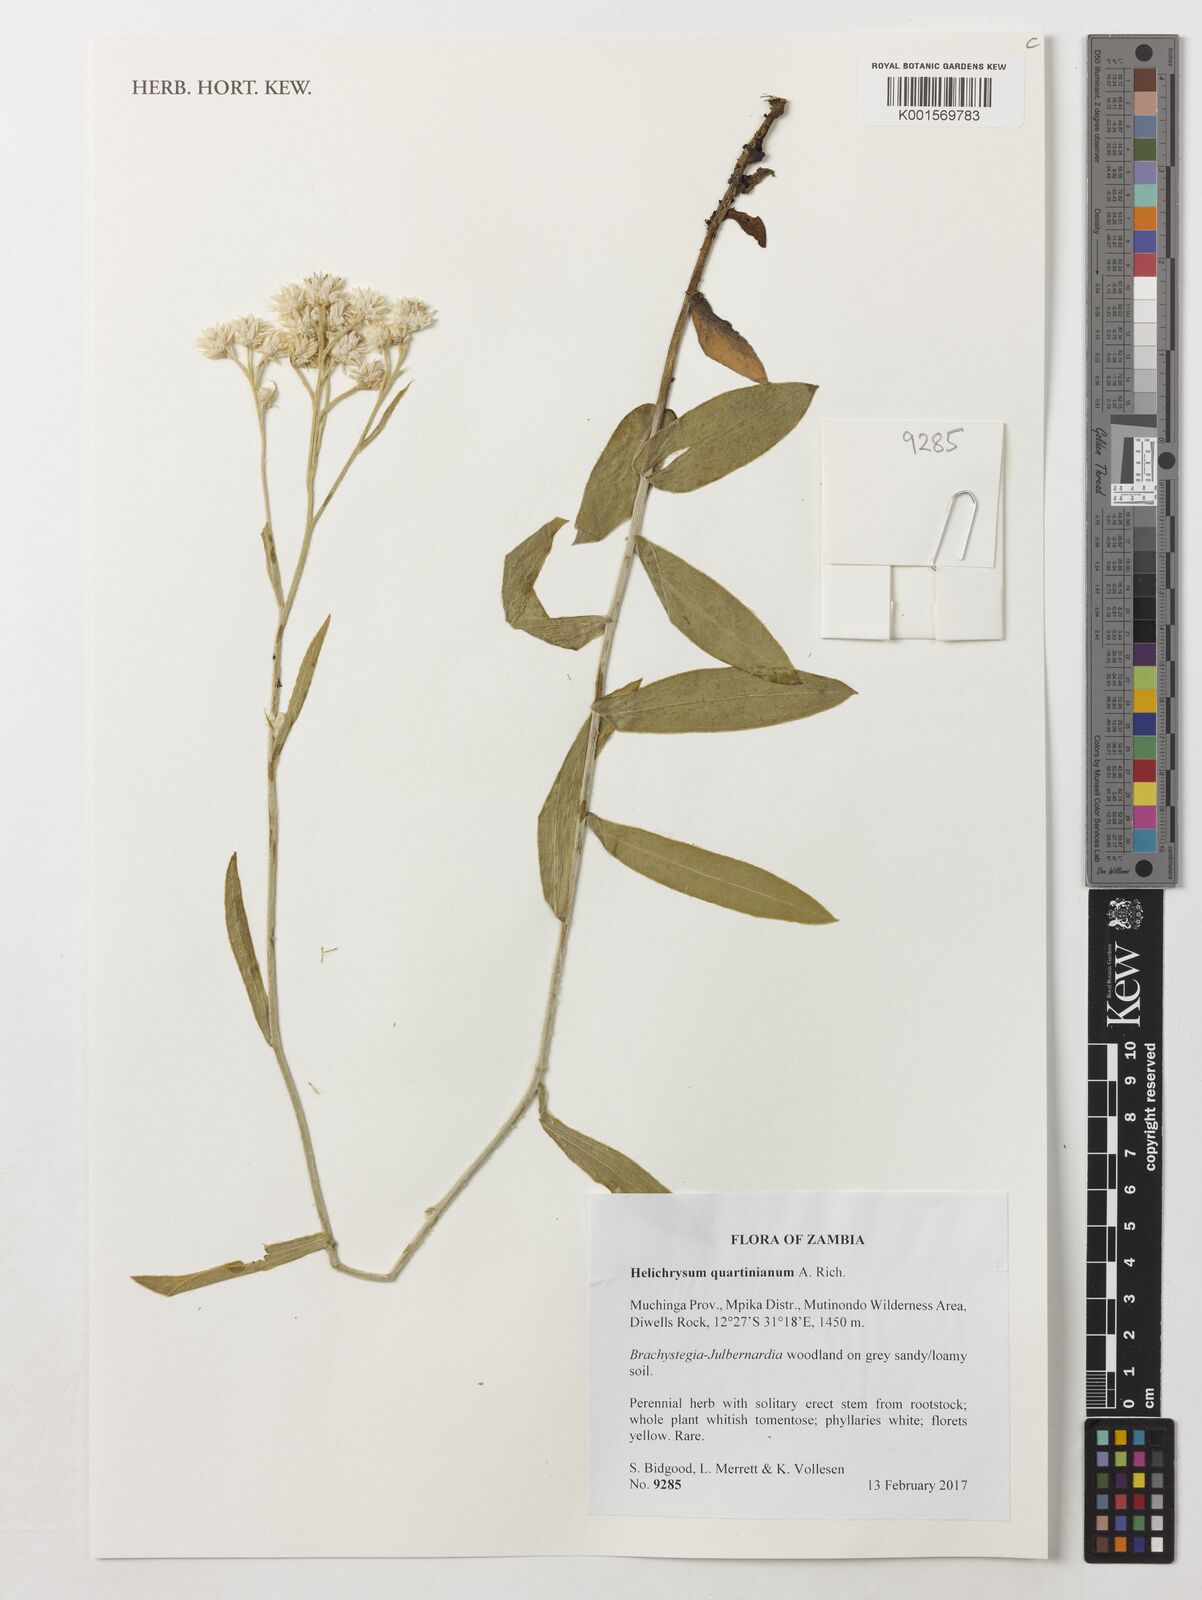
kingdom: Plantae
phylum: Tracheophyta
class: Magnoliopsida
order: Asterales
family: Asteraceae
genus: Helichrysum
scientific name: Helichrysum quartinianum
